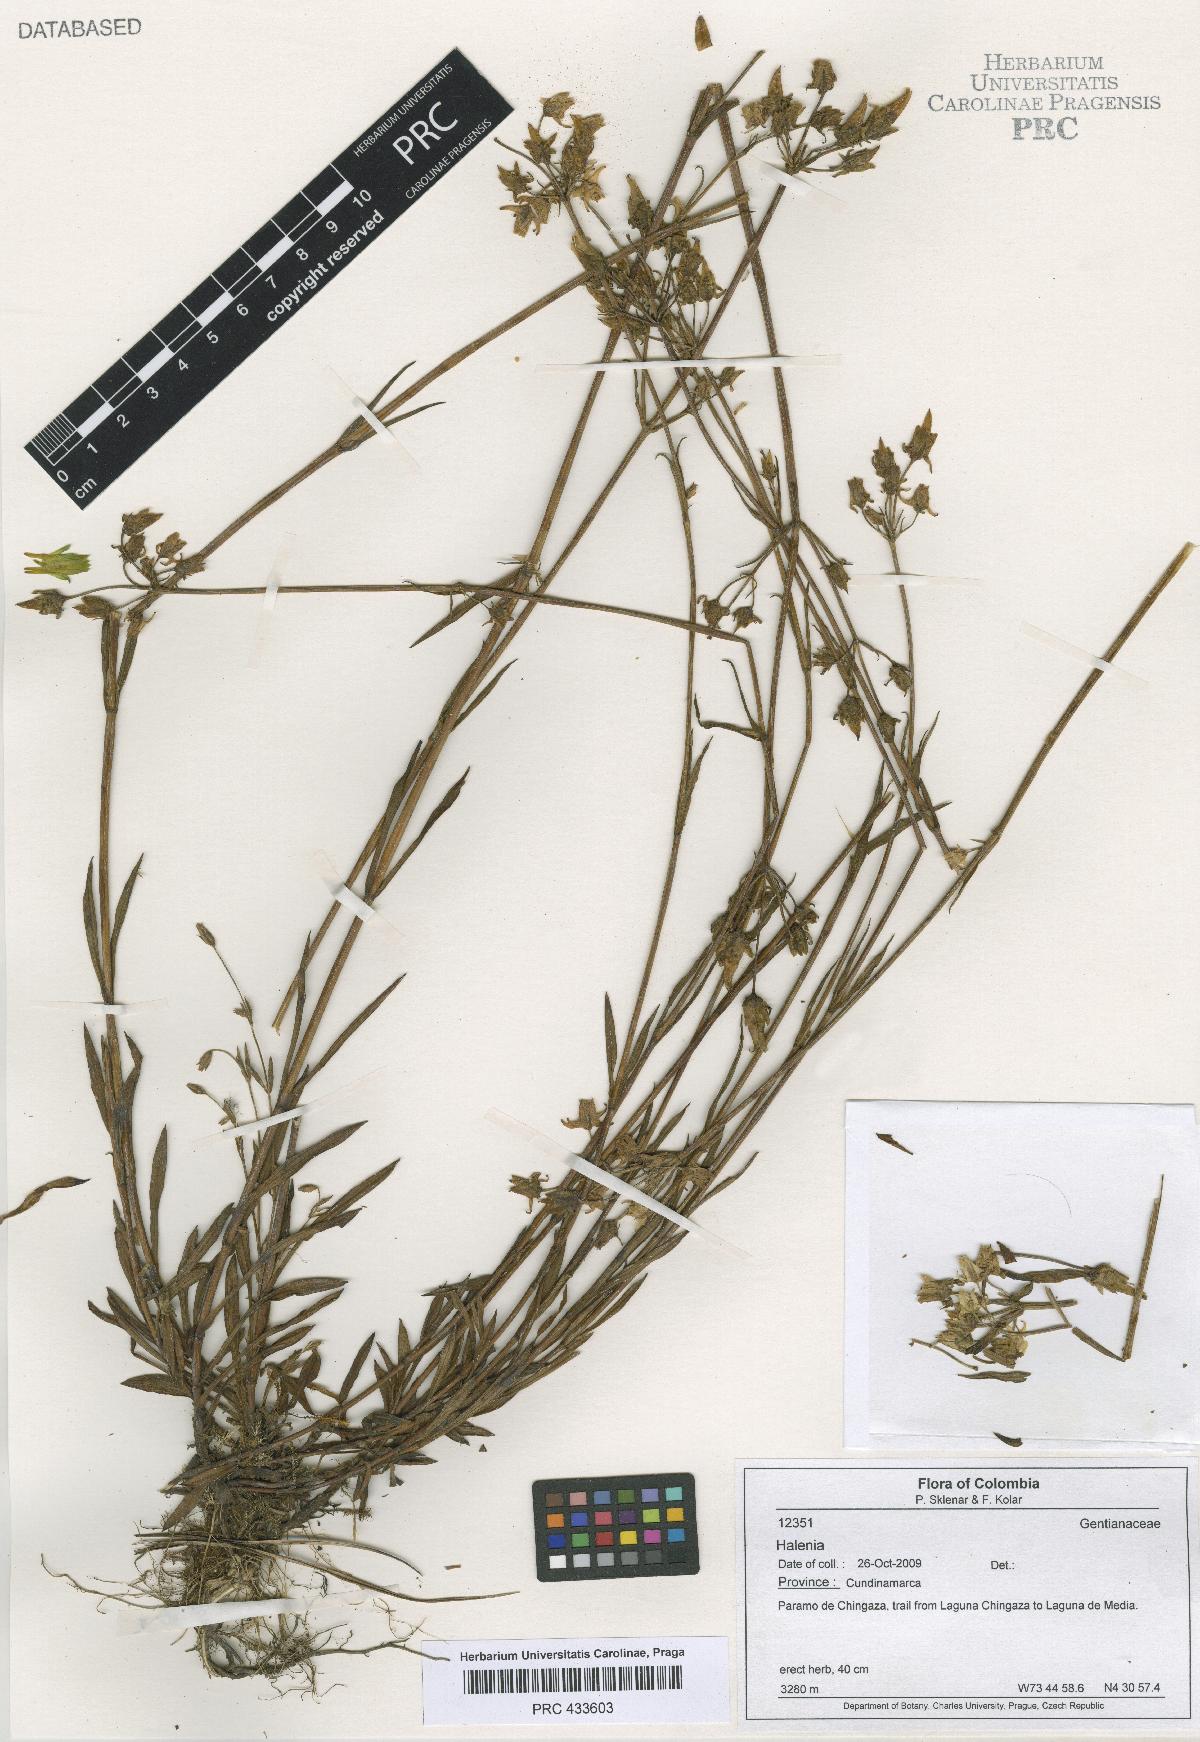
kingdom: Plantae
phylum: Tracheophyta
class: Magnoliopsida
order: Gentianales
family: Gentianaceae
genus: Halenia
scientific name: Halenia
